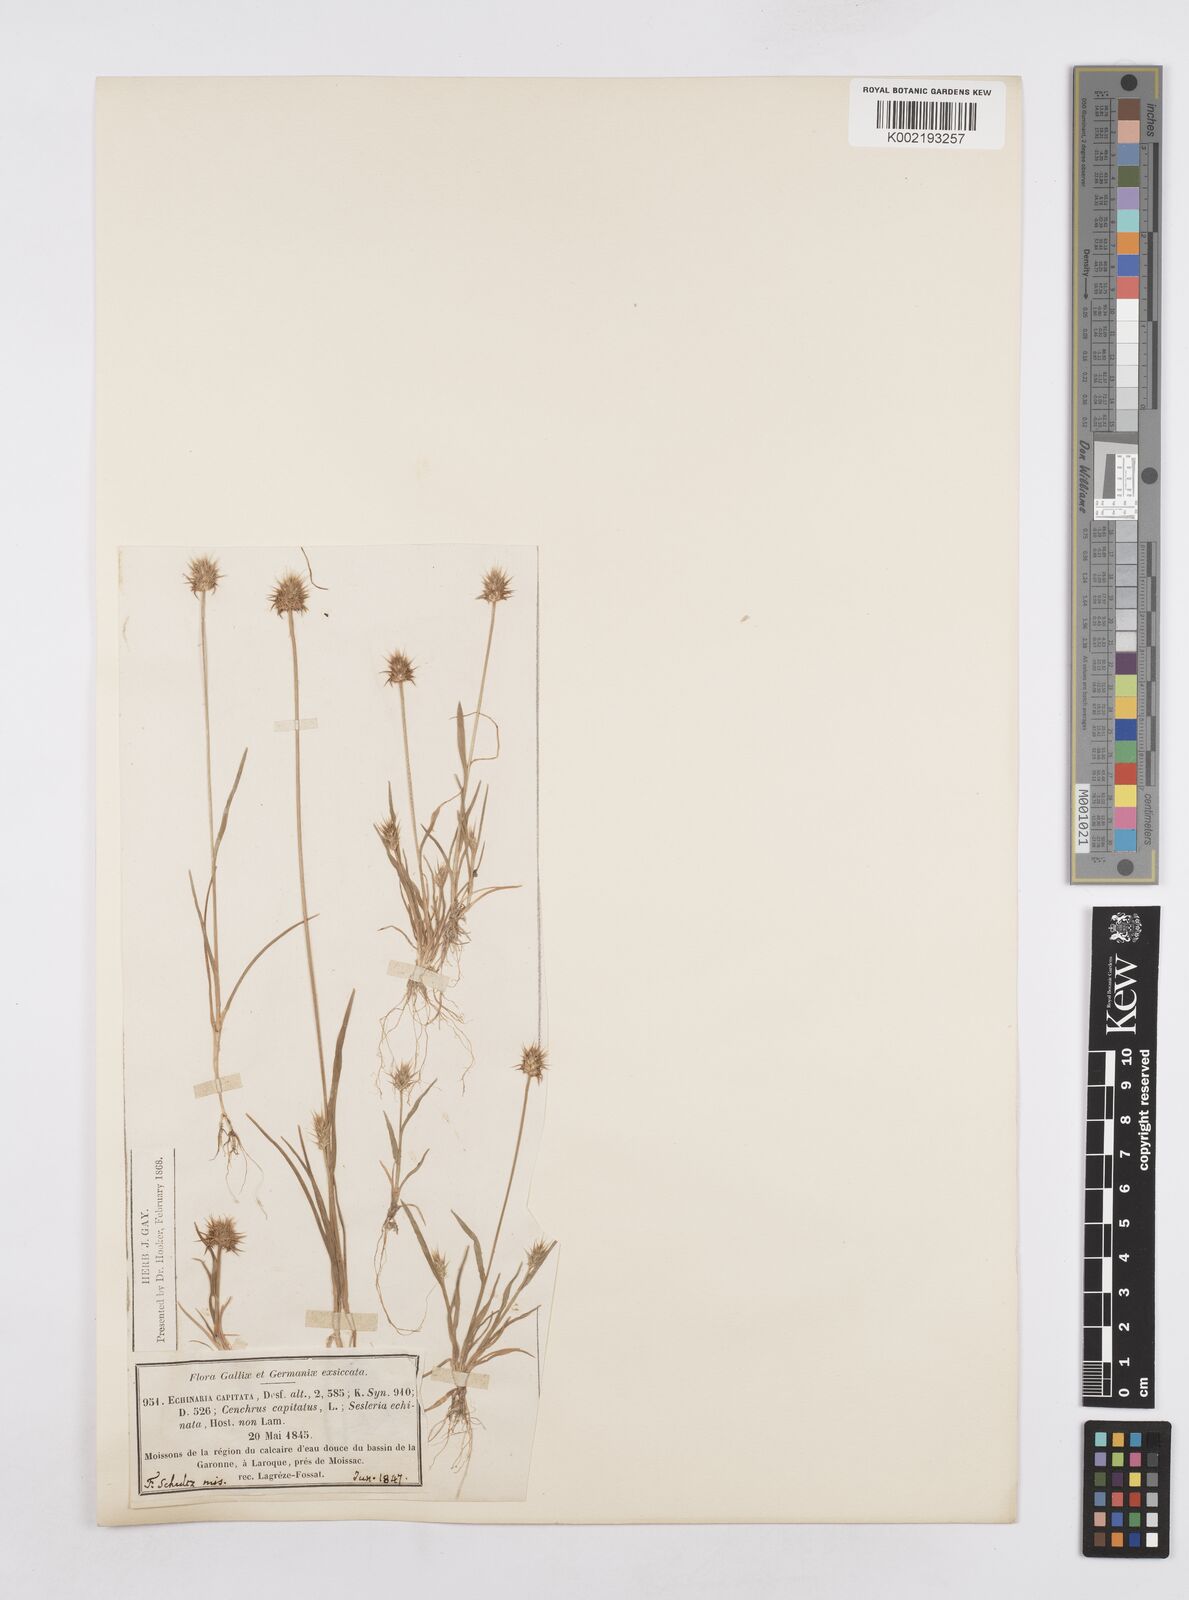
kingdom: Plantae
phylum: Tracheophyta
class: Liliopsida
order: Poales
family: Poaceae
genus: Echinaria
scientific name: Echinaria capitata
